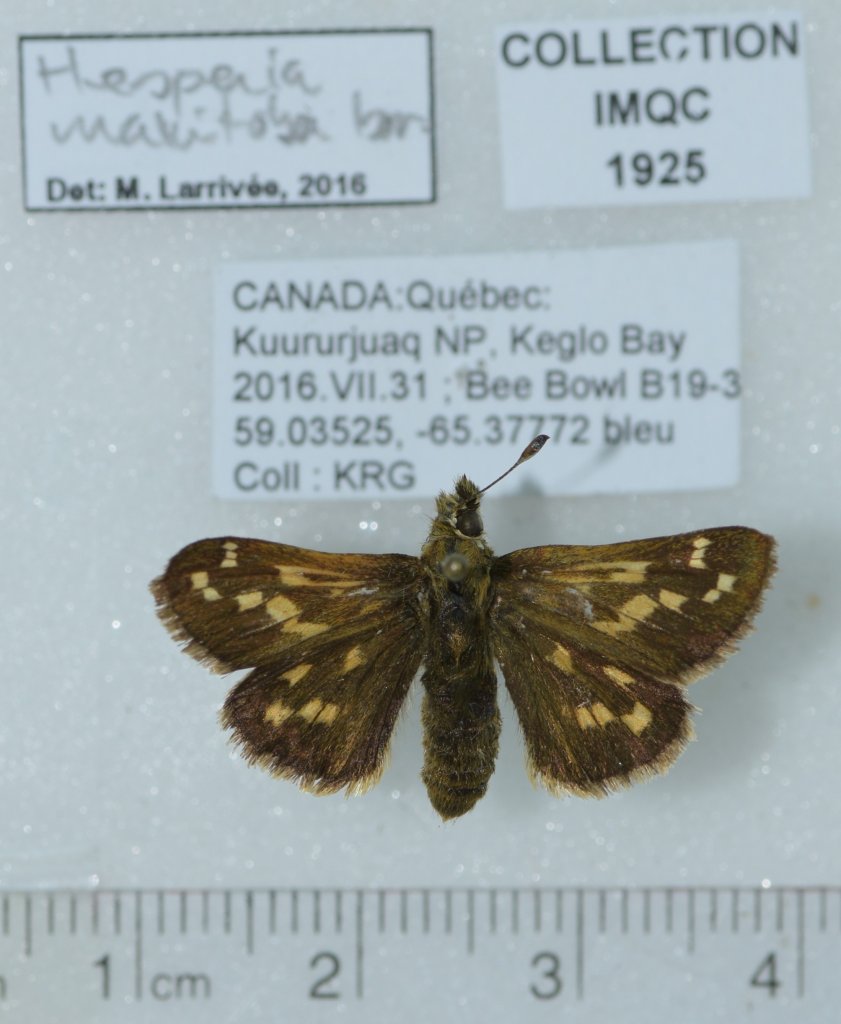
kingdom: Animalia
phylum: Arthropoda
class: Insecta
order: Lepidoptera
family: Hesperiidae
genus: Hesperia
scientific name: Hesperia comma
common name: Common Branded Skipper
